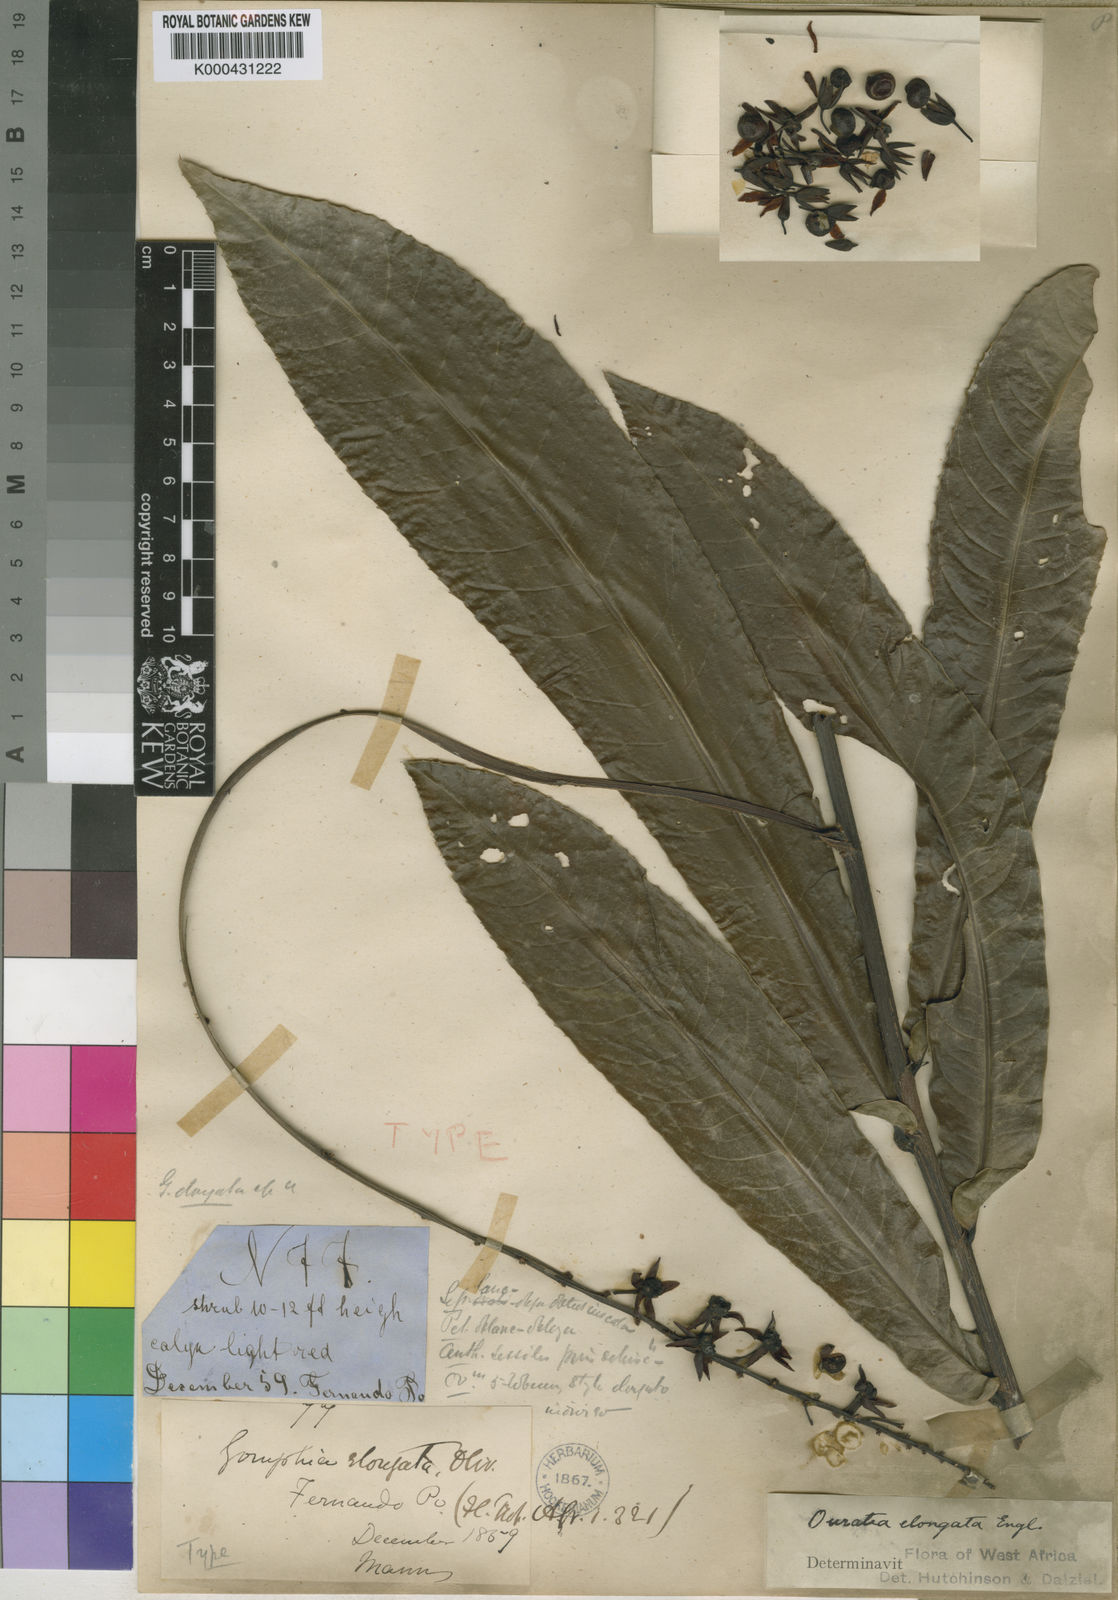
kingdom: Plantae
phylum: Tracheophyta
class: Magnoliopsida
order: Malpighiales
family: Ochnaceae
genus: Gomphia
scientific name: Gomphia elongata
